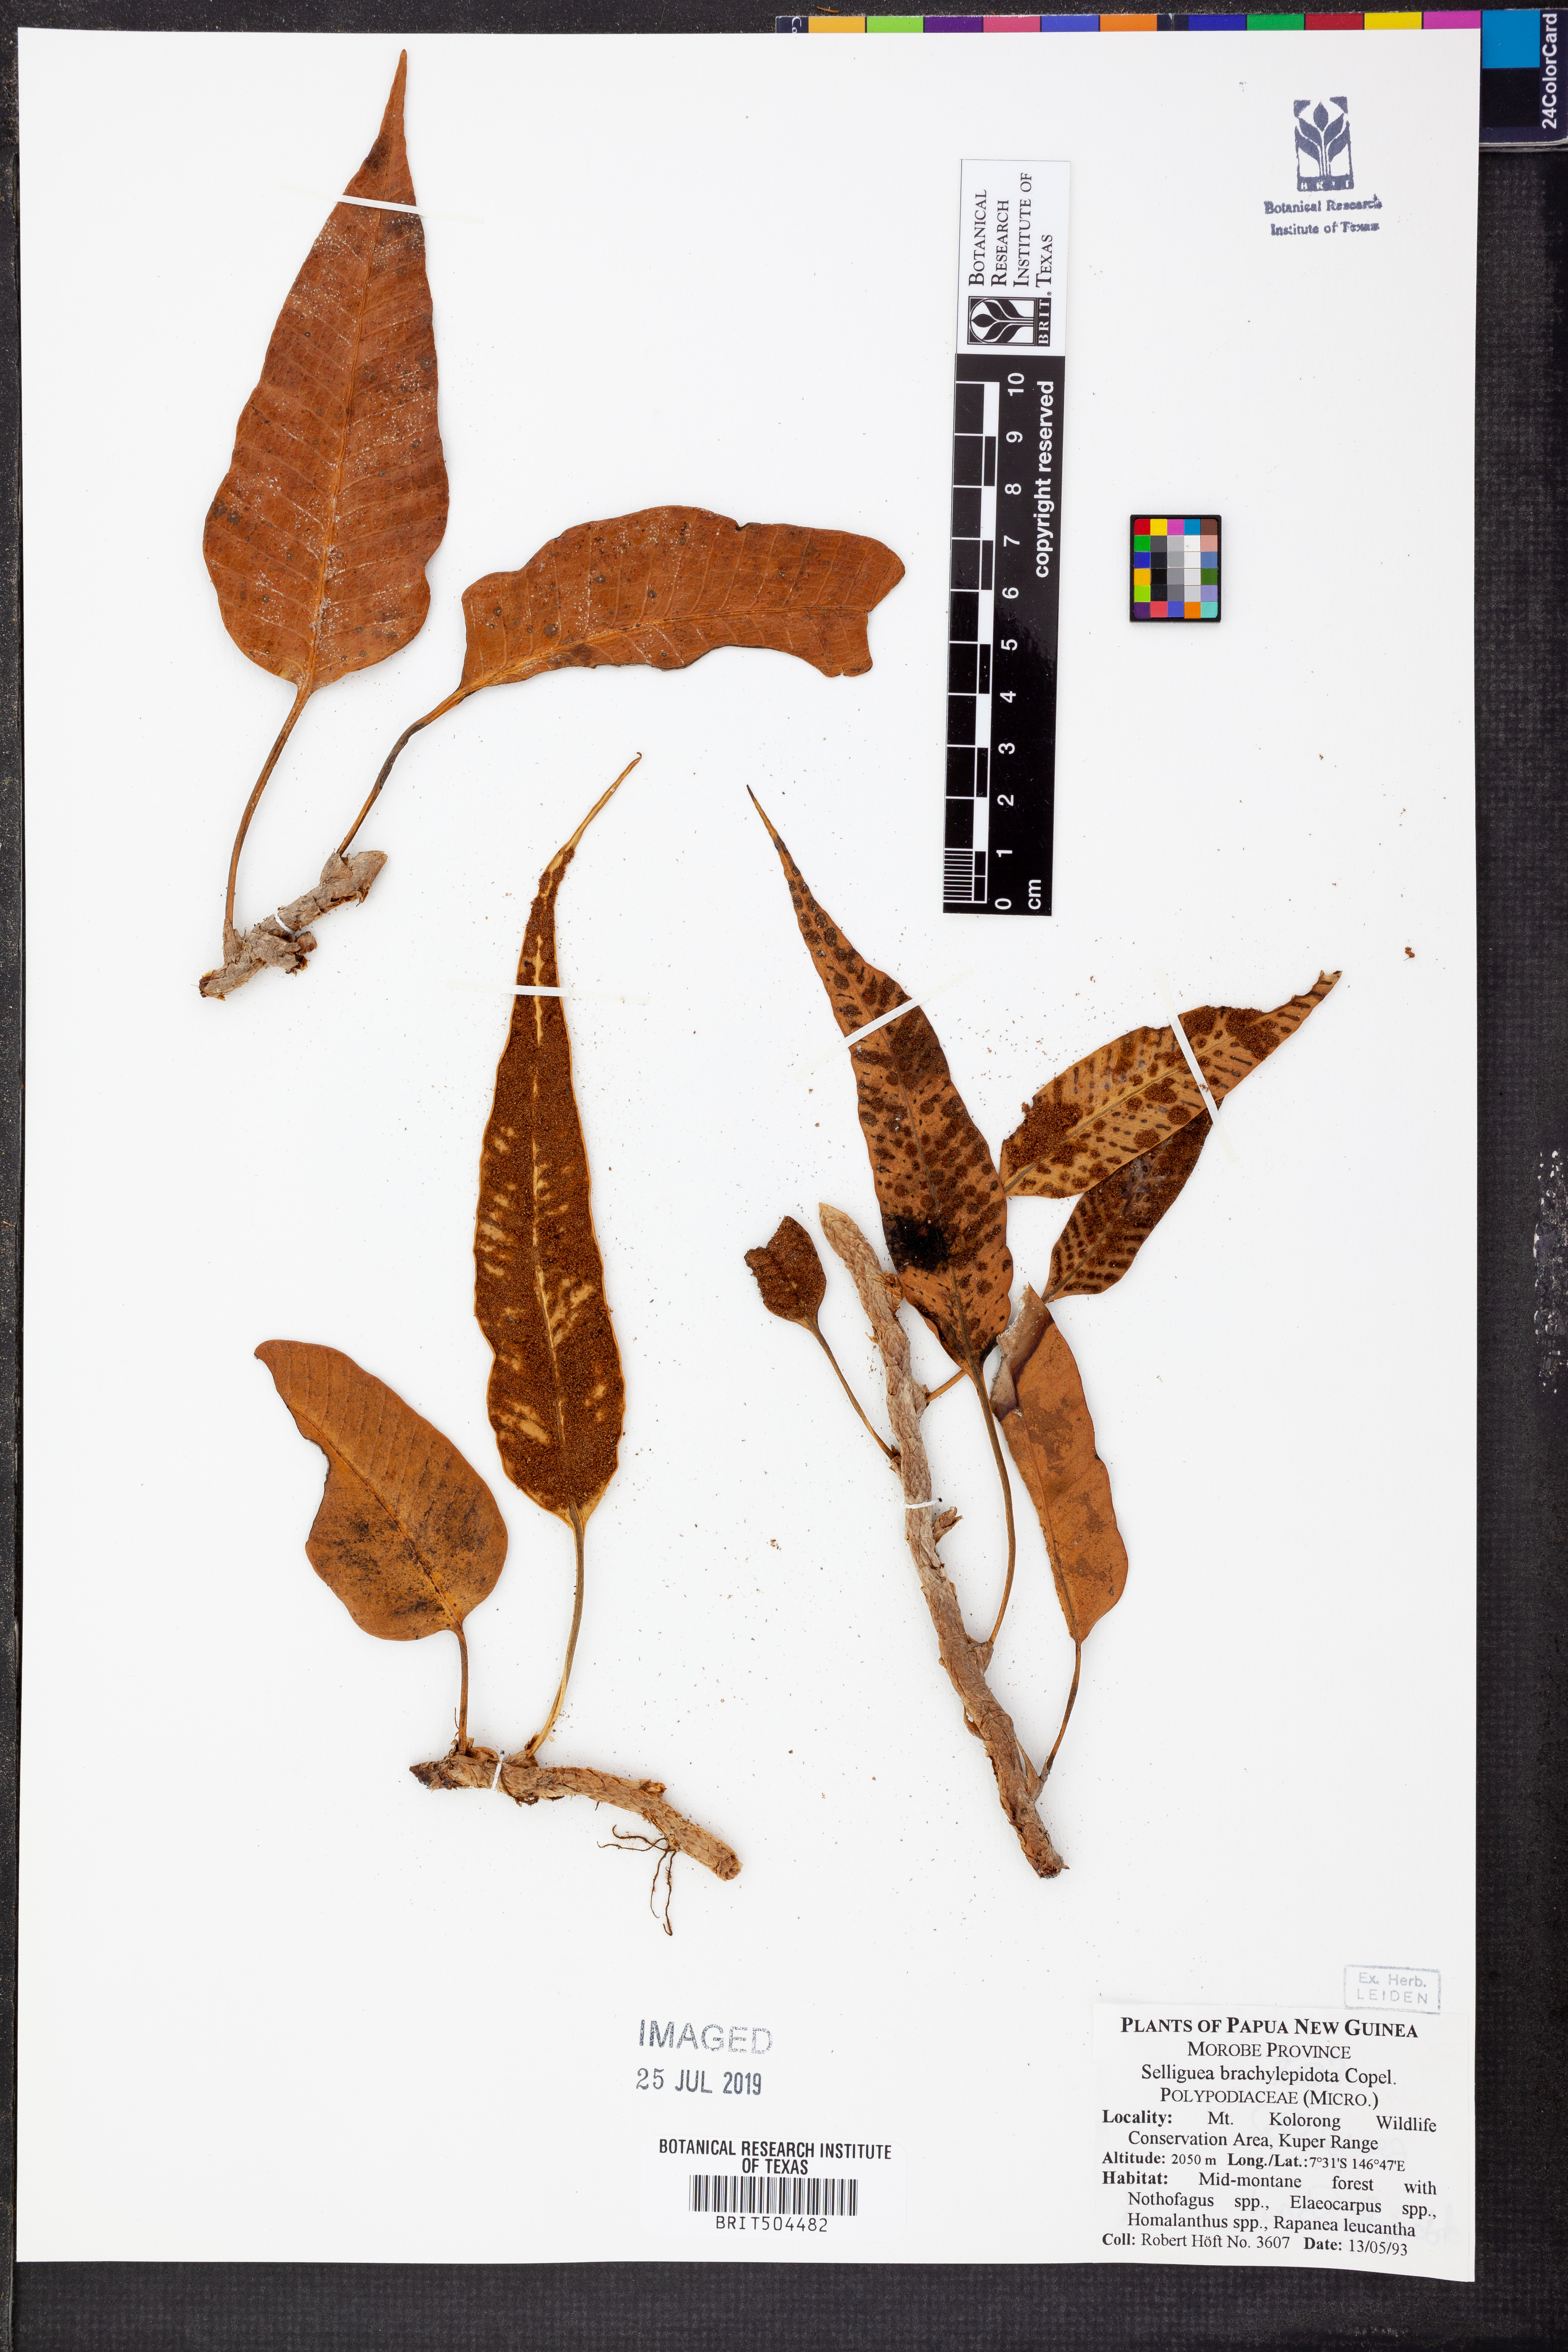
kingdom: Plantae
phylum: Tracheophyta
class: Polypodiopsida
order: Polypodiales
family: Polypodiaceae
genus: Selliguea
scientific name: Selliguea bellisquamata
